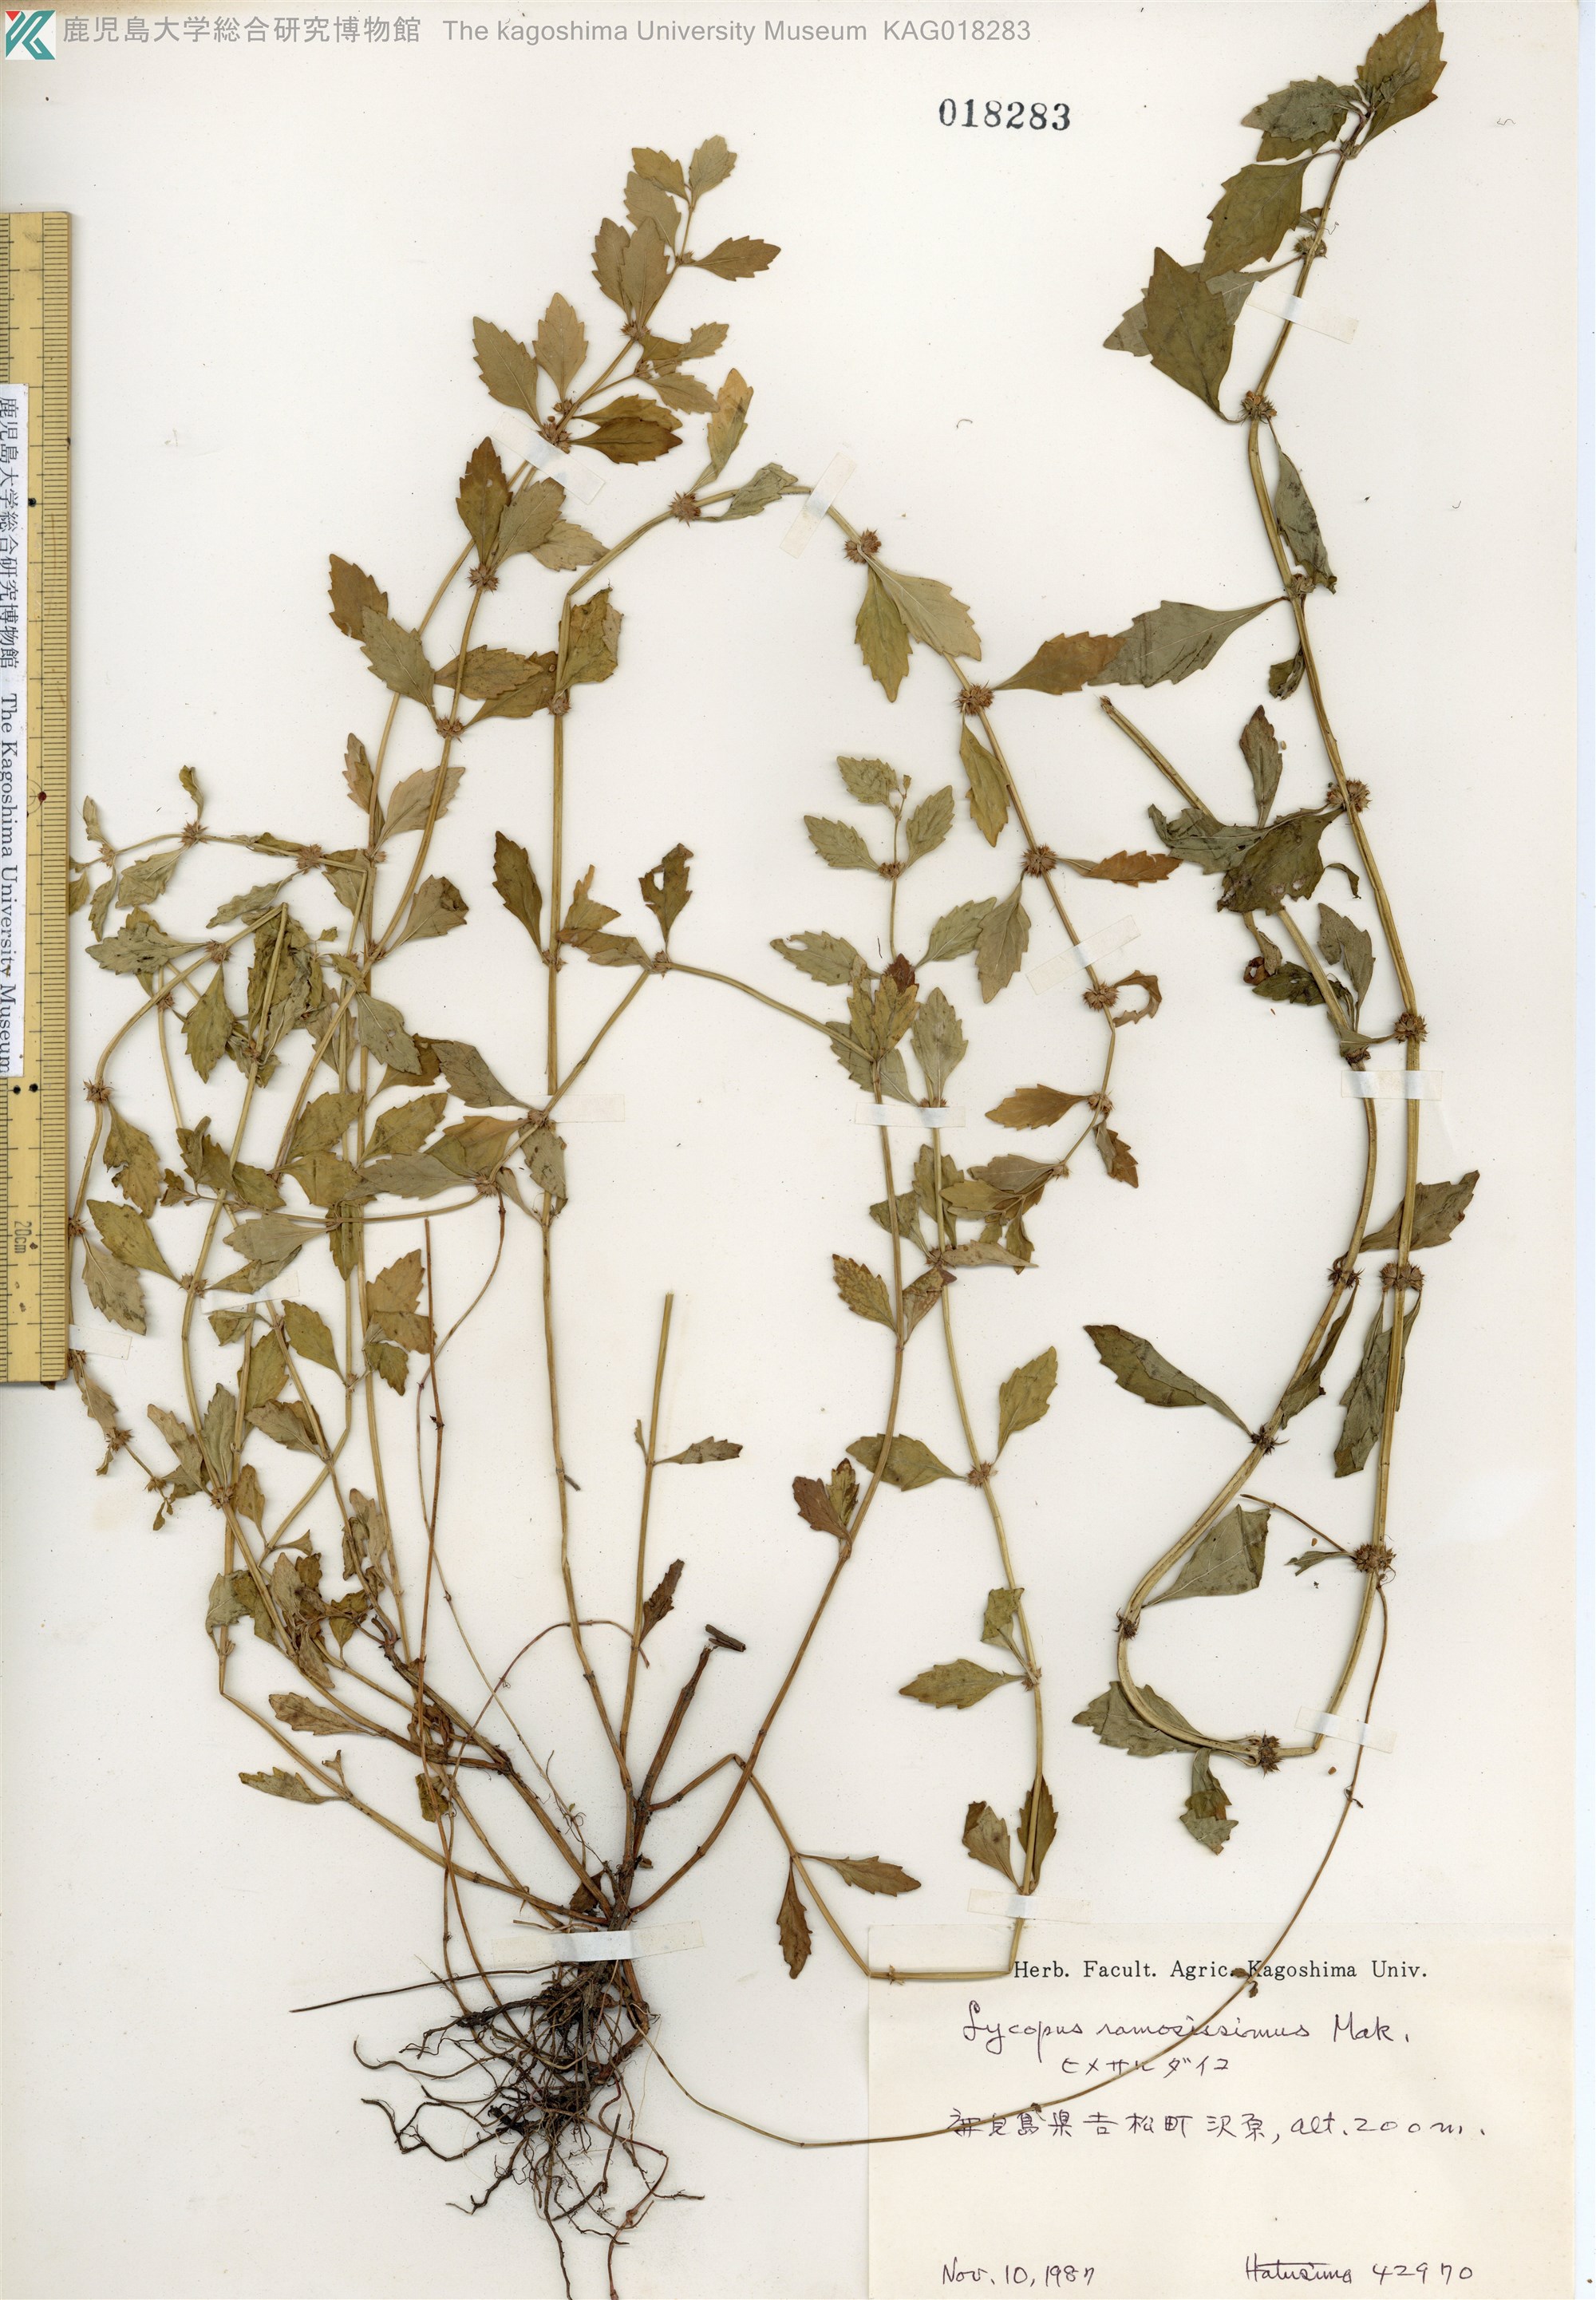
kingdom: Plantae
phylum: Tracheophyta
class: Magnoliopsida
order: Lamiales
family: Lamiaceae
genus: Lycopus
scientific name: Lycopus cavaleriei
